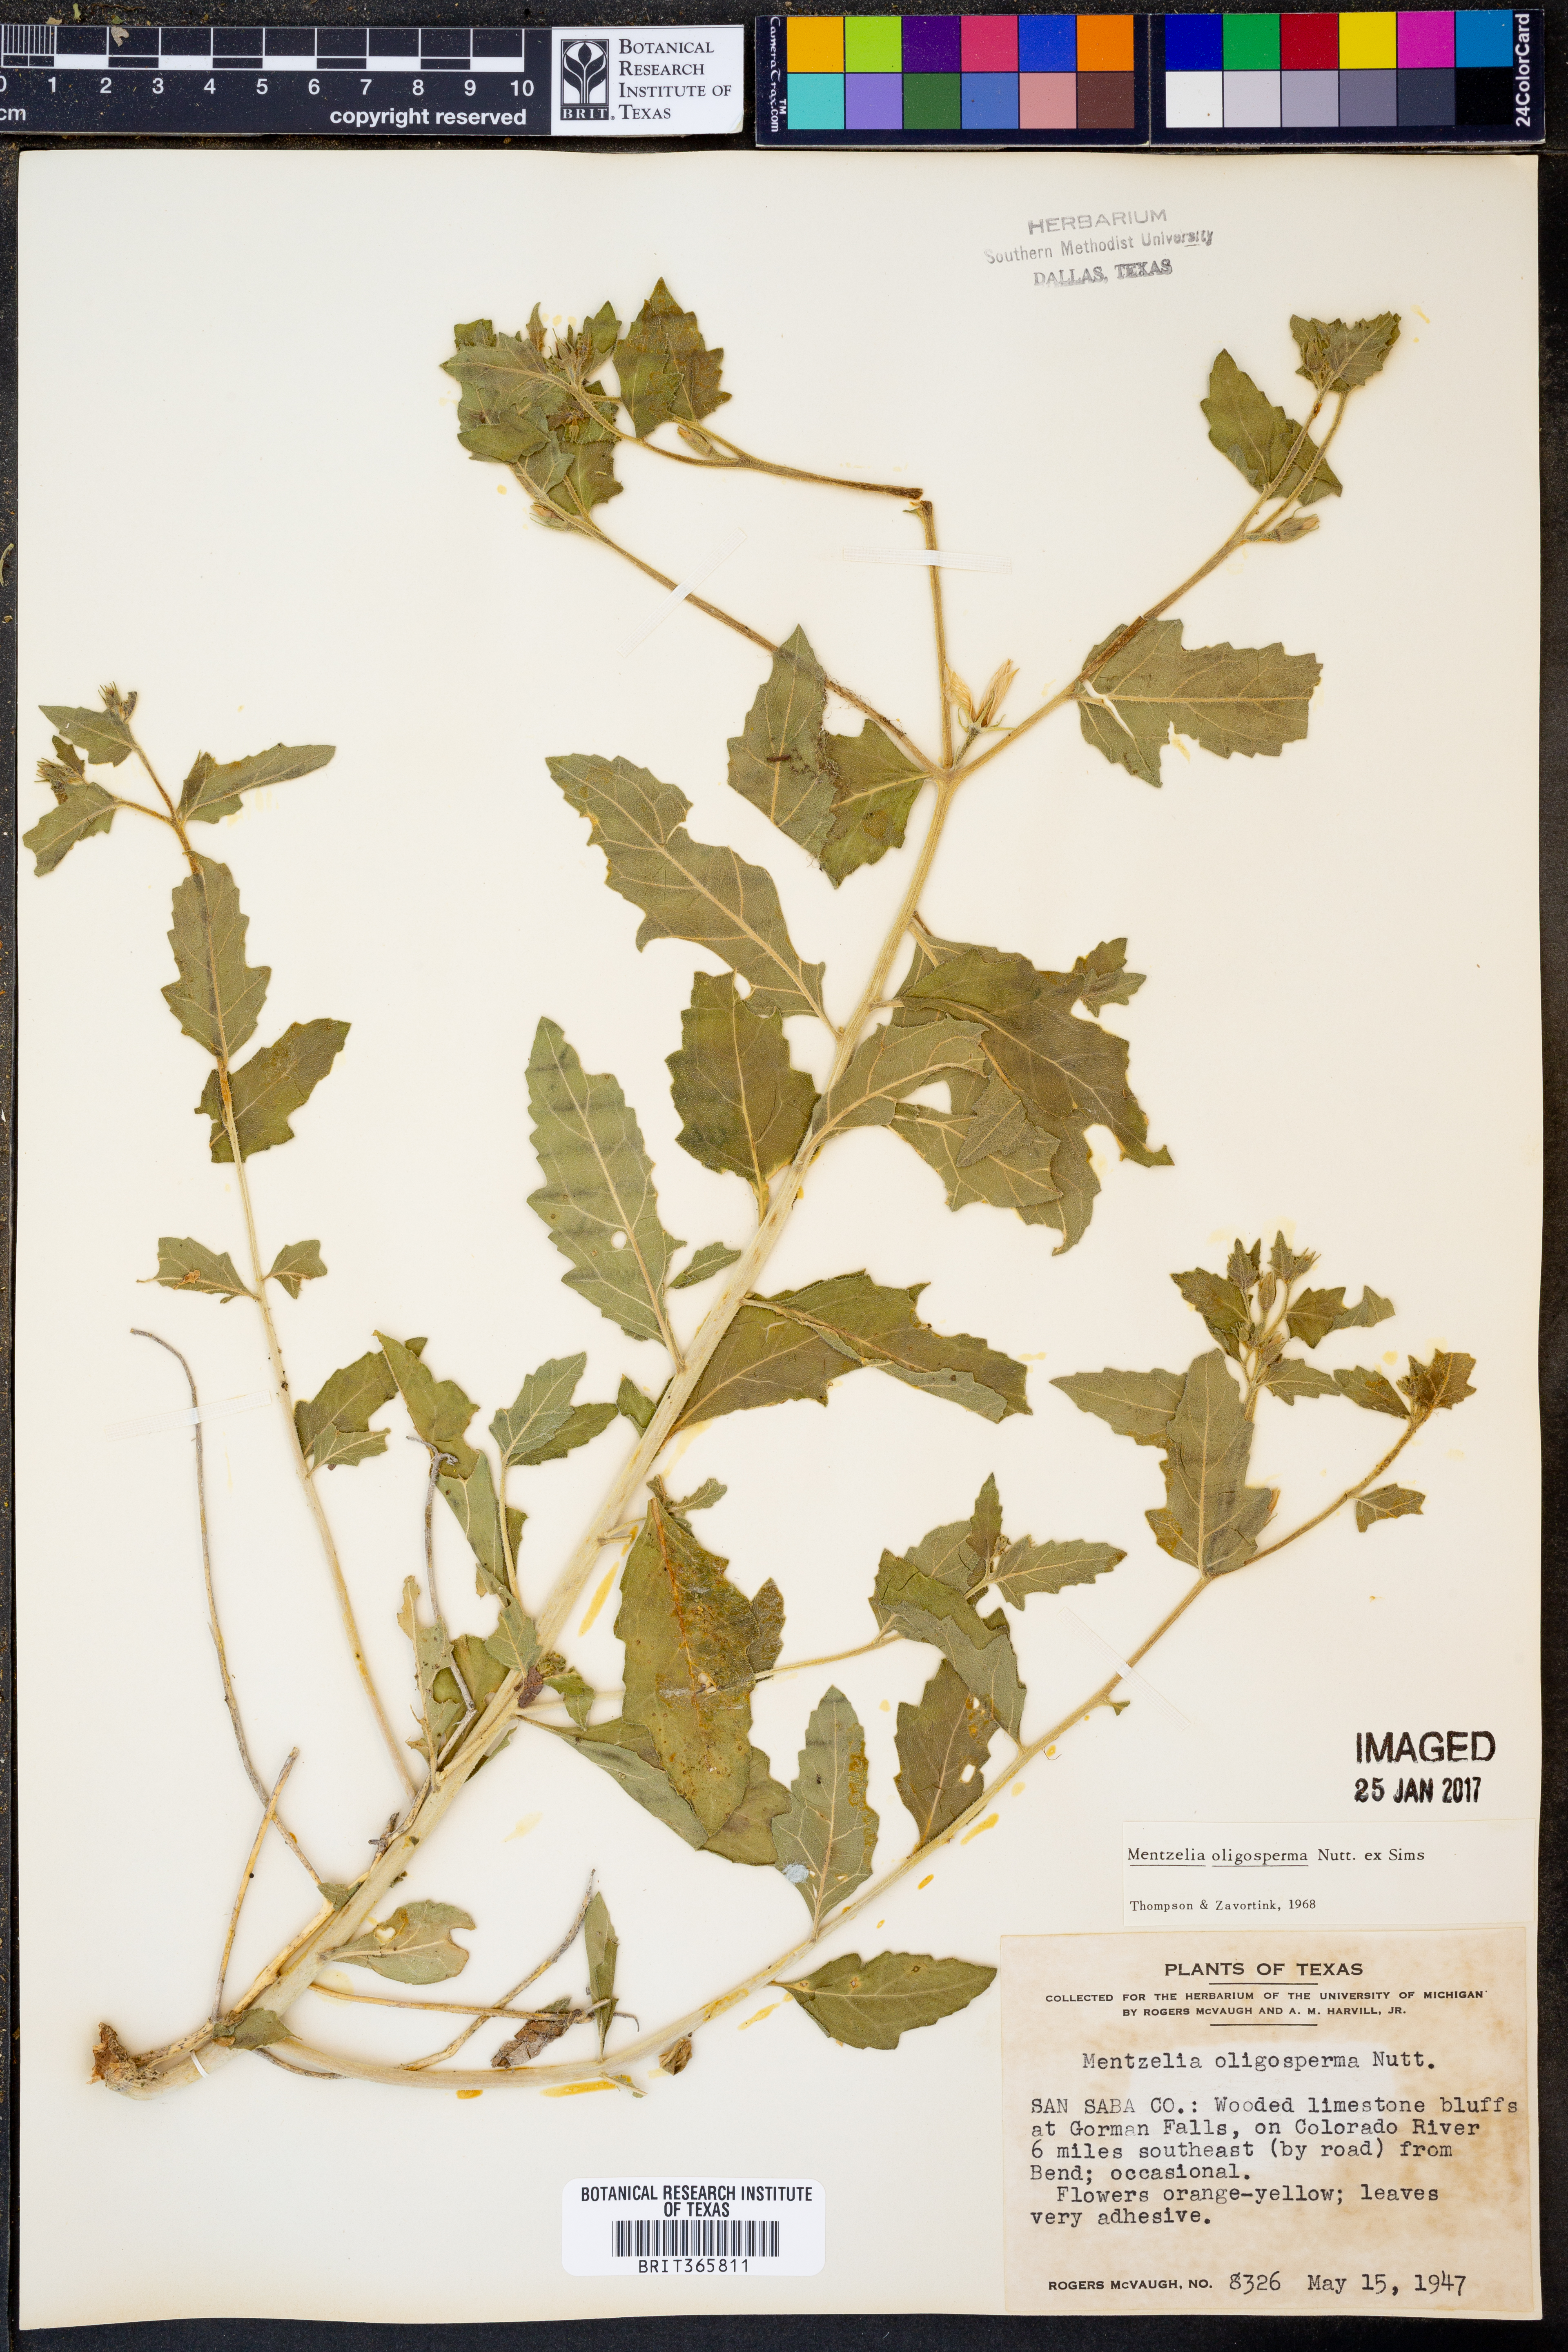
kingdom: Plantae
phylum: Tracheophyta
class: Magnoliopsida
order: Cornales
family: Loasaceae
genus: Mentzelia
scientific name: Mentzelia oligosperma
